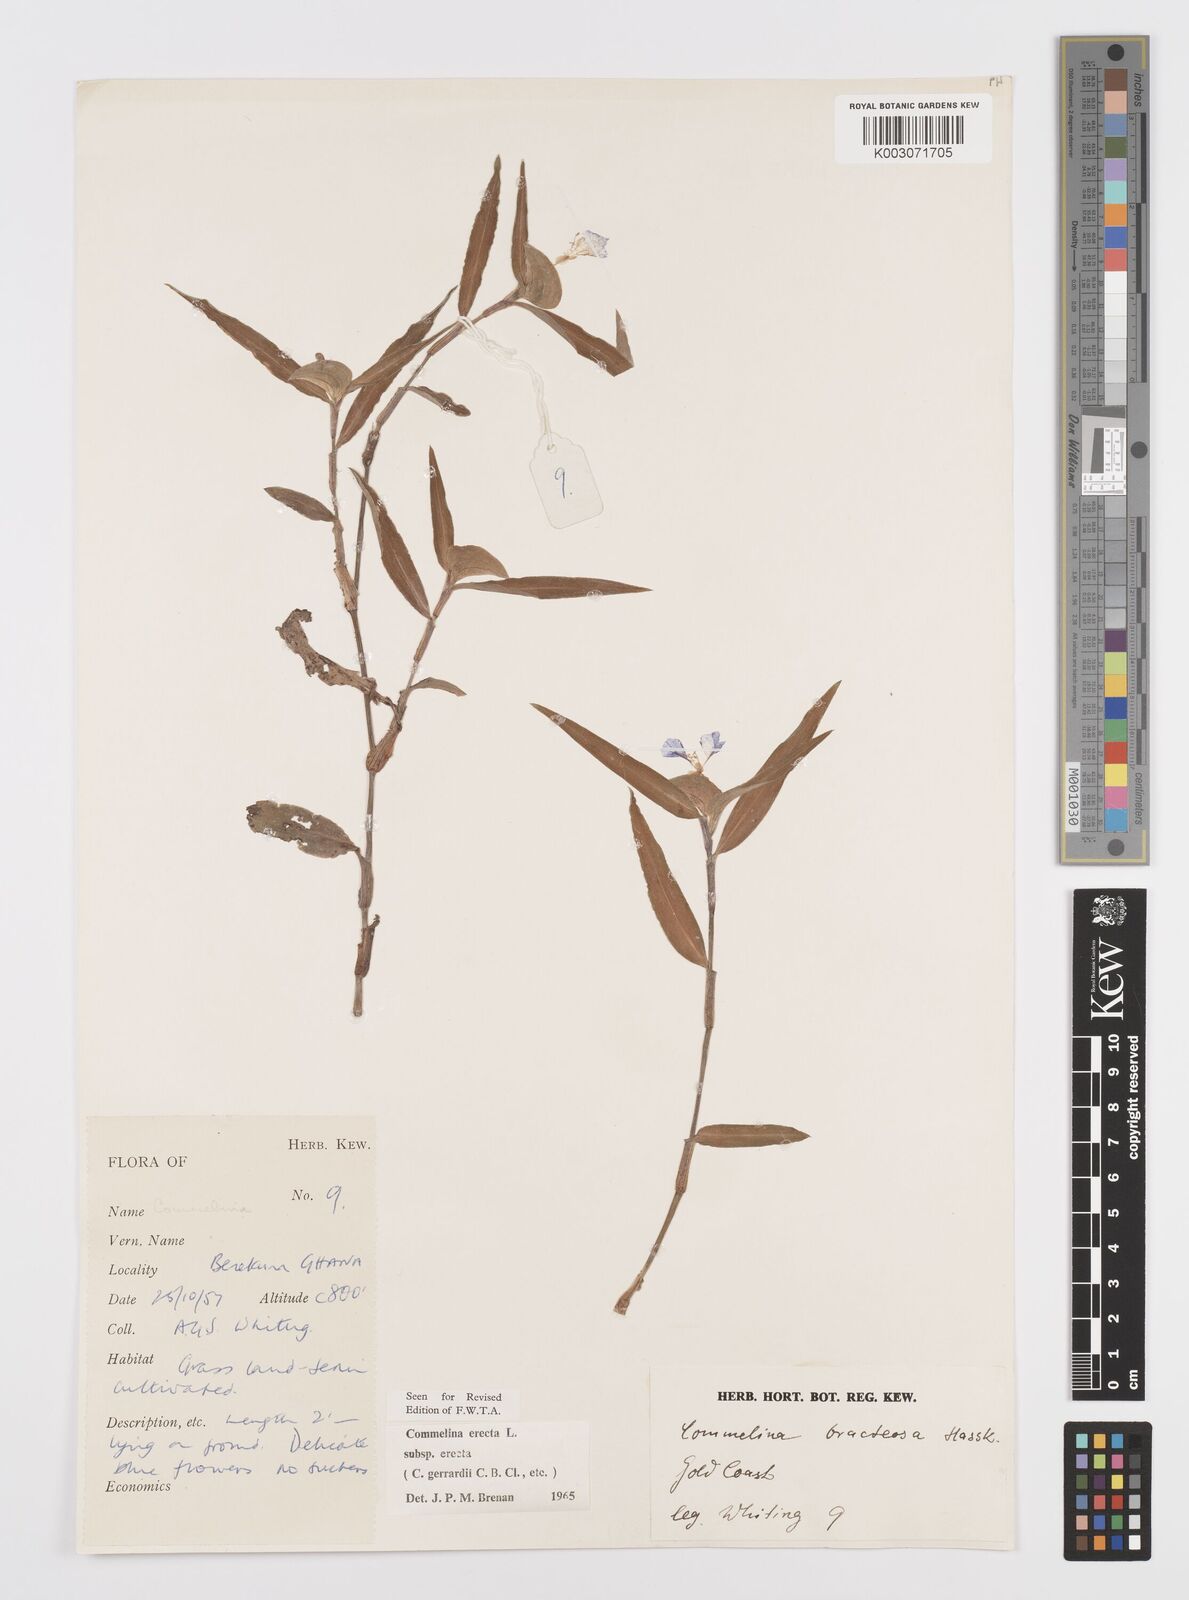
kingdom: Plantae
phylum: Tracheophyta
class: Liliopsida
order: Commelinales
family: Commelinaceae
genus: Commelina
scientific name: Commelina erecta
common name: Blousel blommetjie
